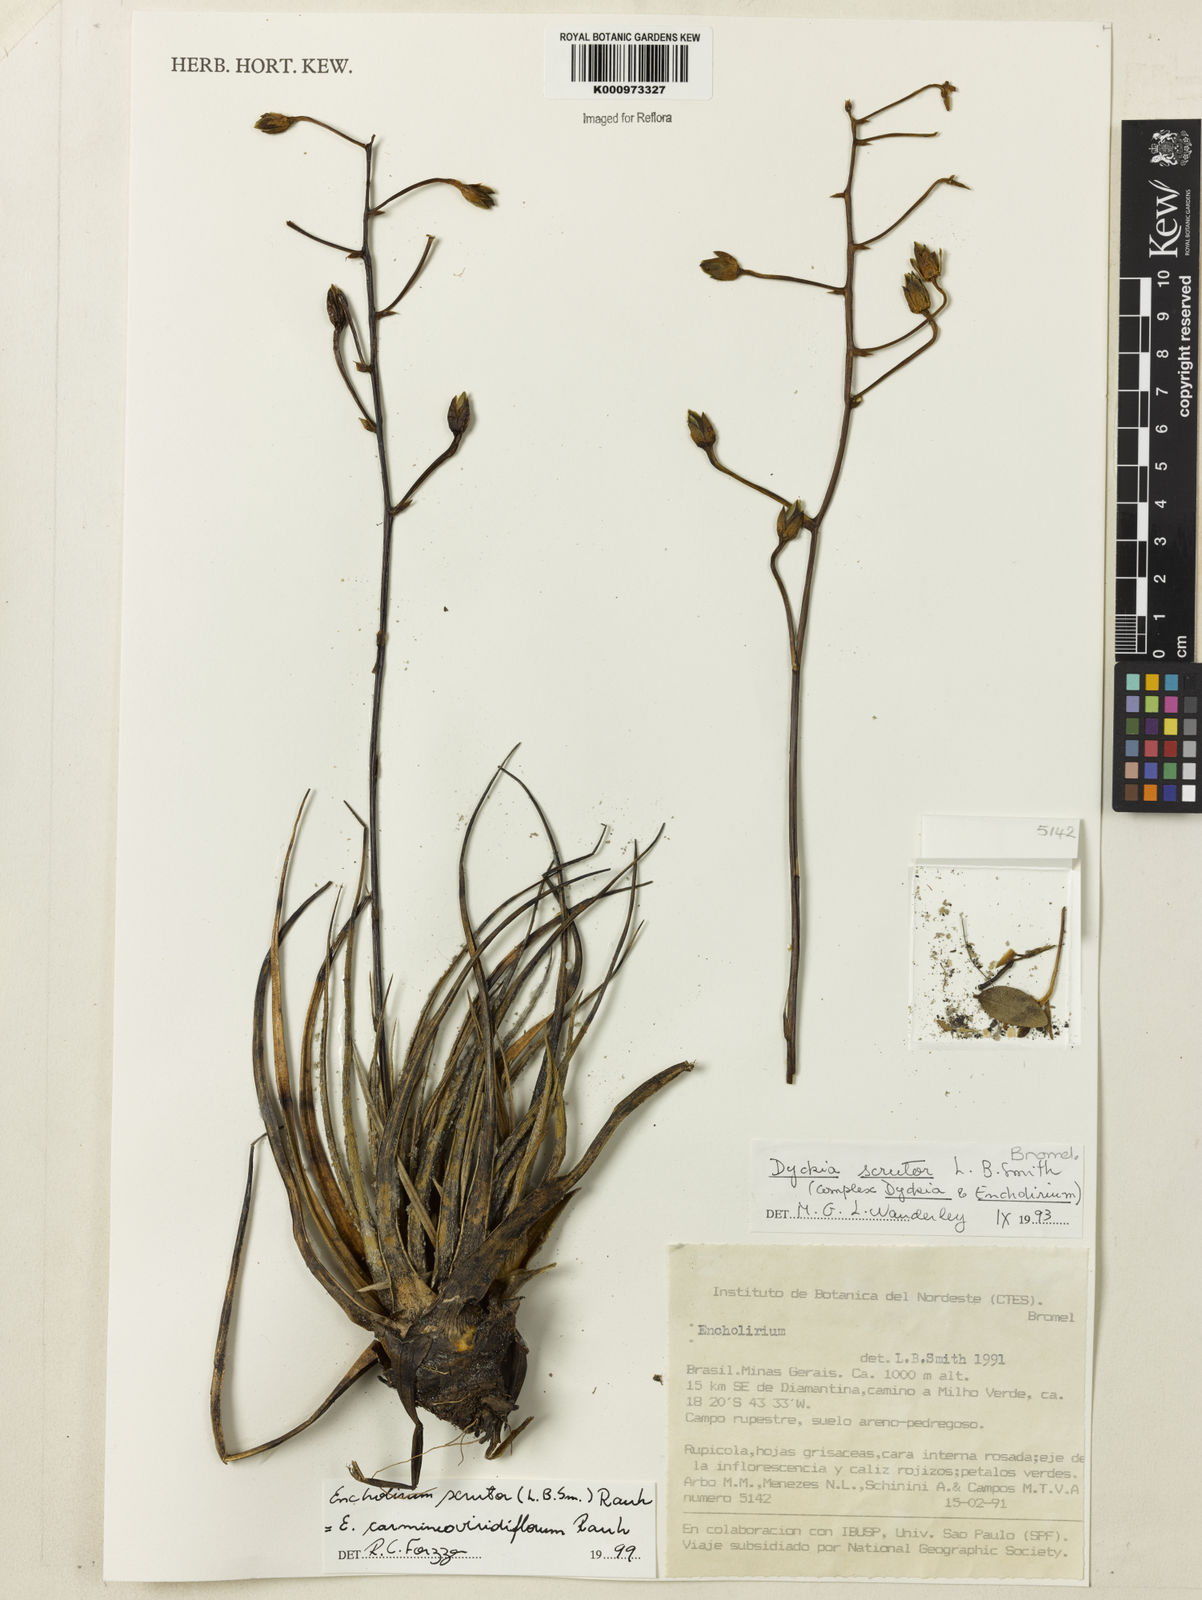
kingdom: Plantae
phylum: Tracheophyta
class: Liliopsida
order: Poales
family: Bromeliaceae
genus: Encholirium
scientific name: Encholirium scrutor
